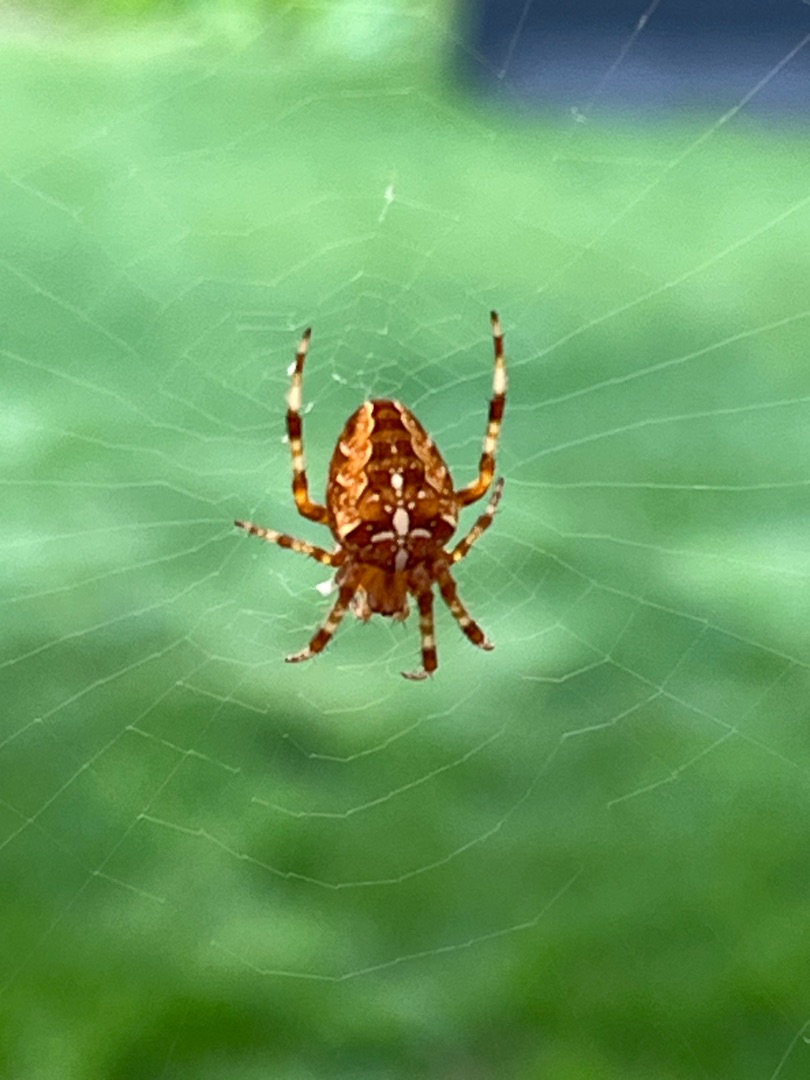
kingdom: Animalia
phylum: Arthropoda
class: Arachnida
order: Araneae
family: Araneidae
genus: Araneus
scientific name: Araneus diadematus
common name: Korsedderkop
